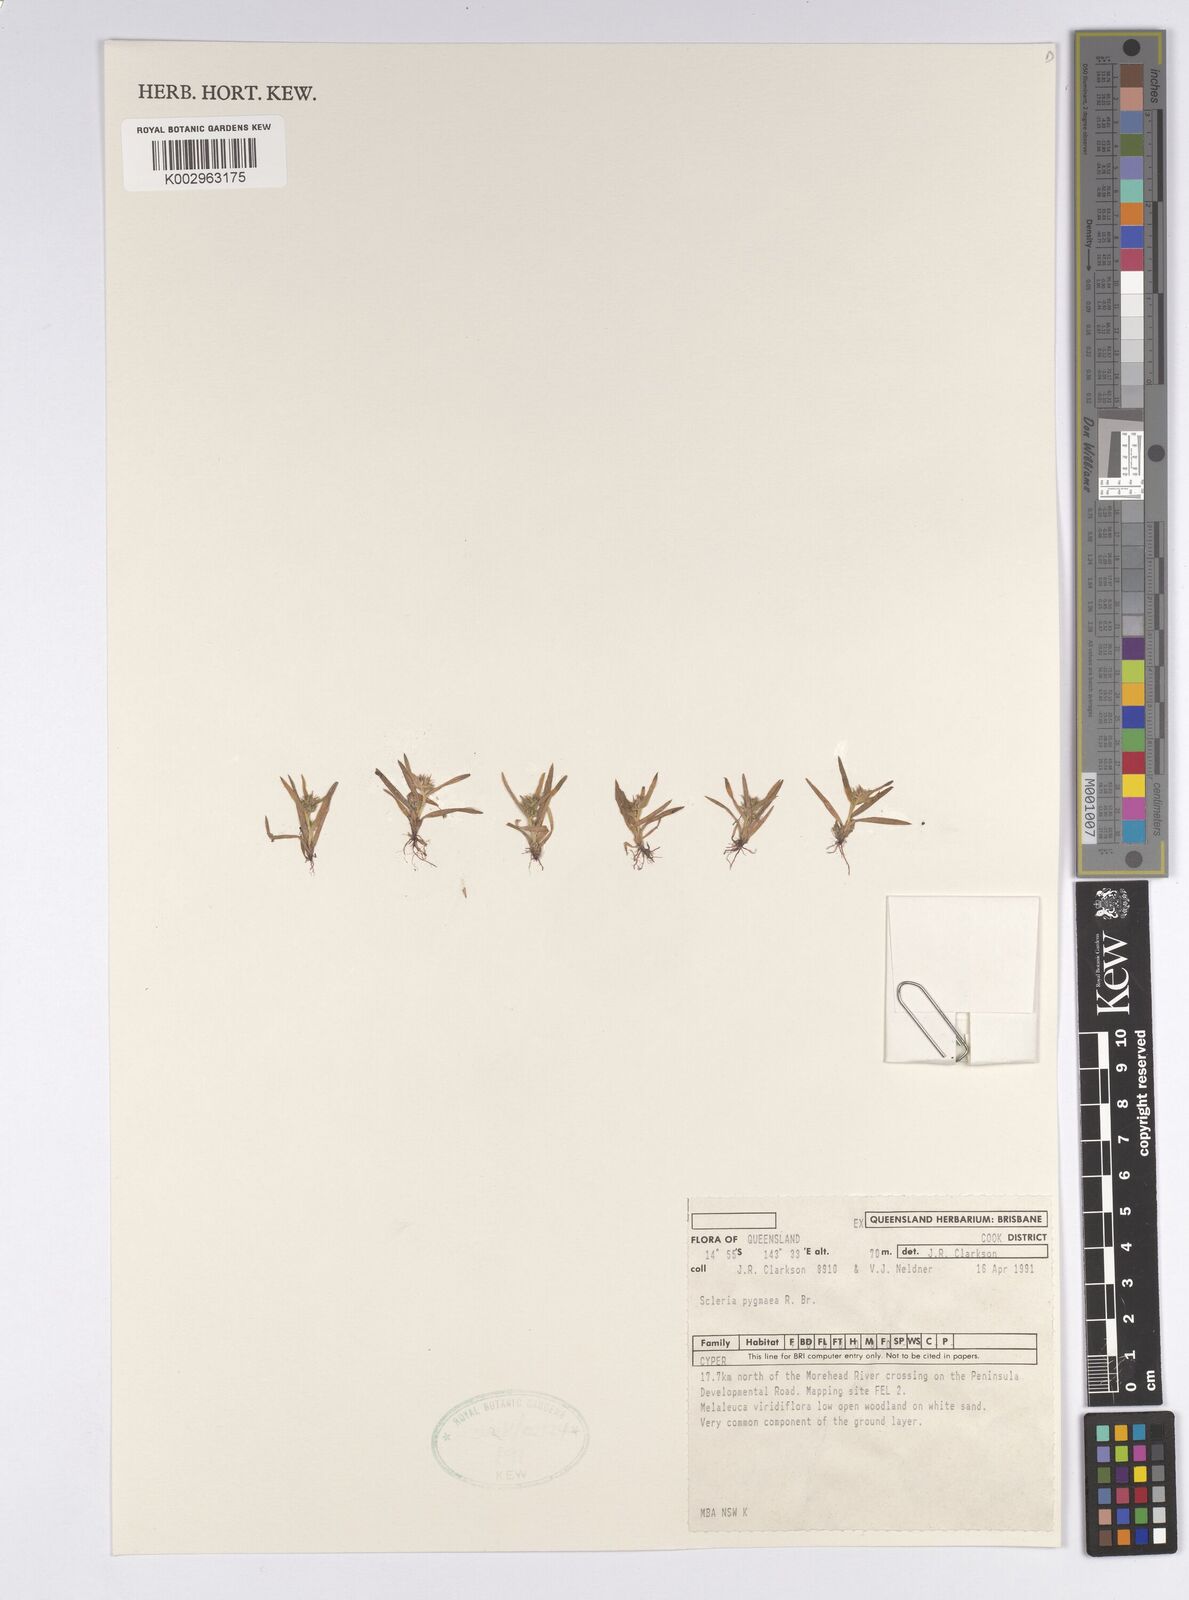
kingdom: Plantae
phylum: Tracheophyta
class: Liliopsida
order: Poales
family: Cyperaceae
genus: Diplacrum
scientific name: Diplacrum pygmaeum
